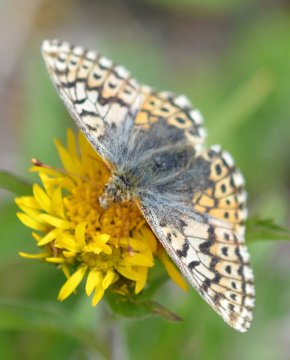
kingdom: Animalia
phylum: Arthropoda
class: Insecta
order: Lepidoptera
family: Nymphalidae
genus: Boloria
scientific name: Boloria
